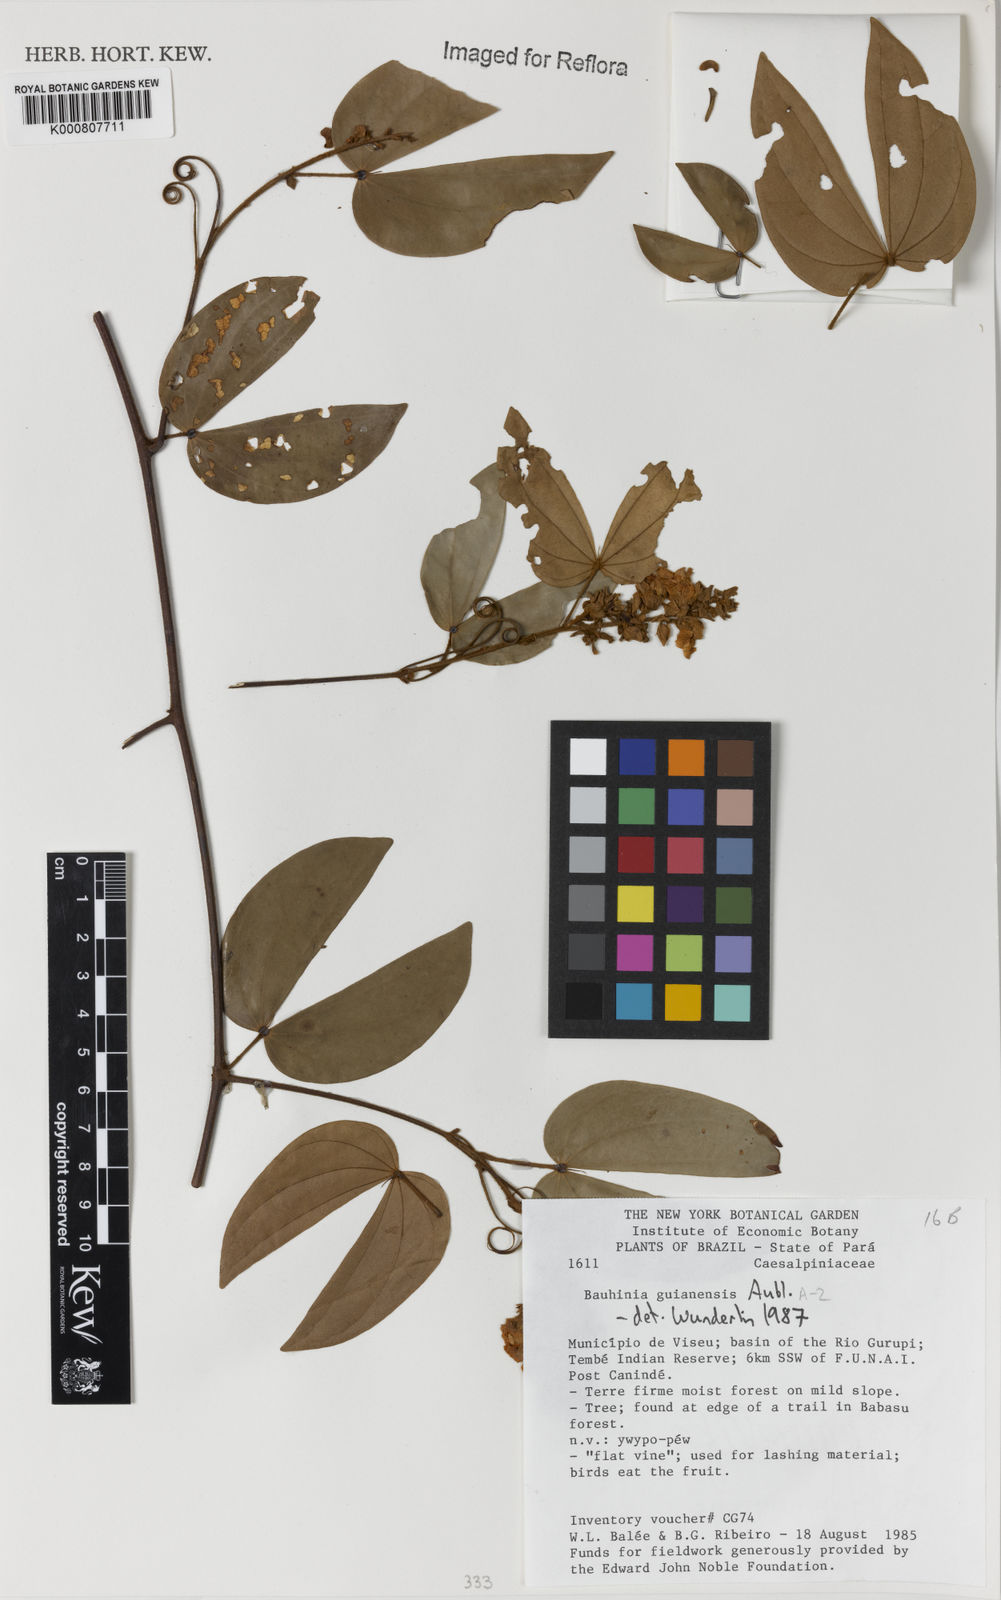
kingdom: Plantae
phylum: Tracheophyta
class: Magnoliopsida
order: Fabales
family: Fabaceae
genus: Schnella
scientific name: Schnella guianensis
